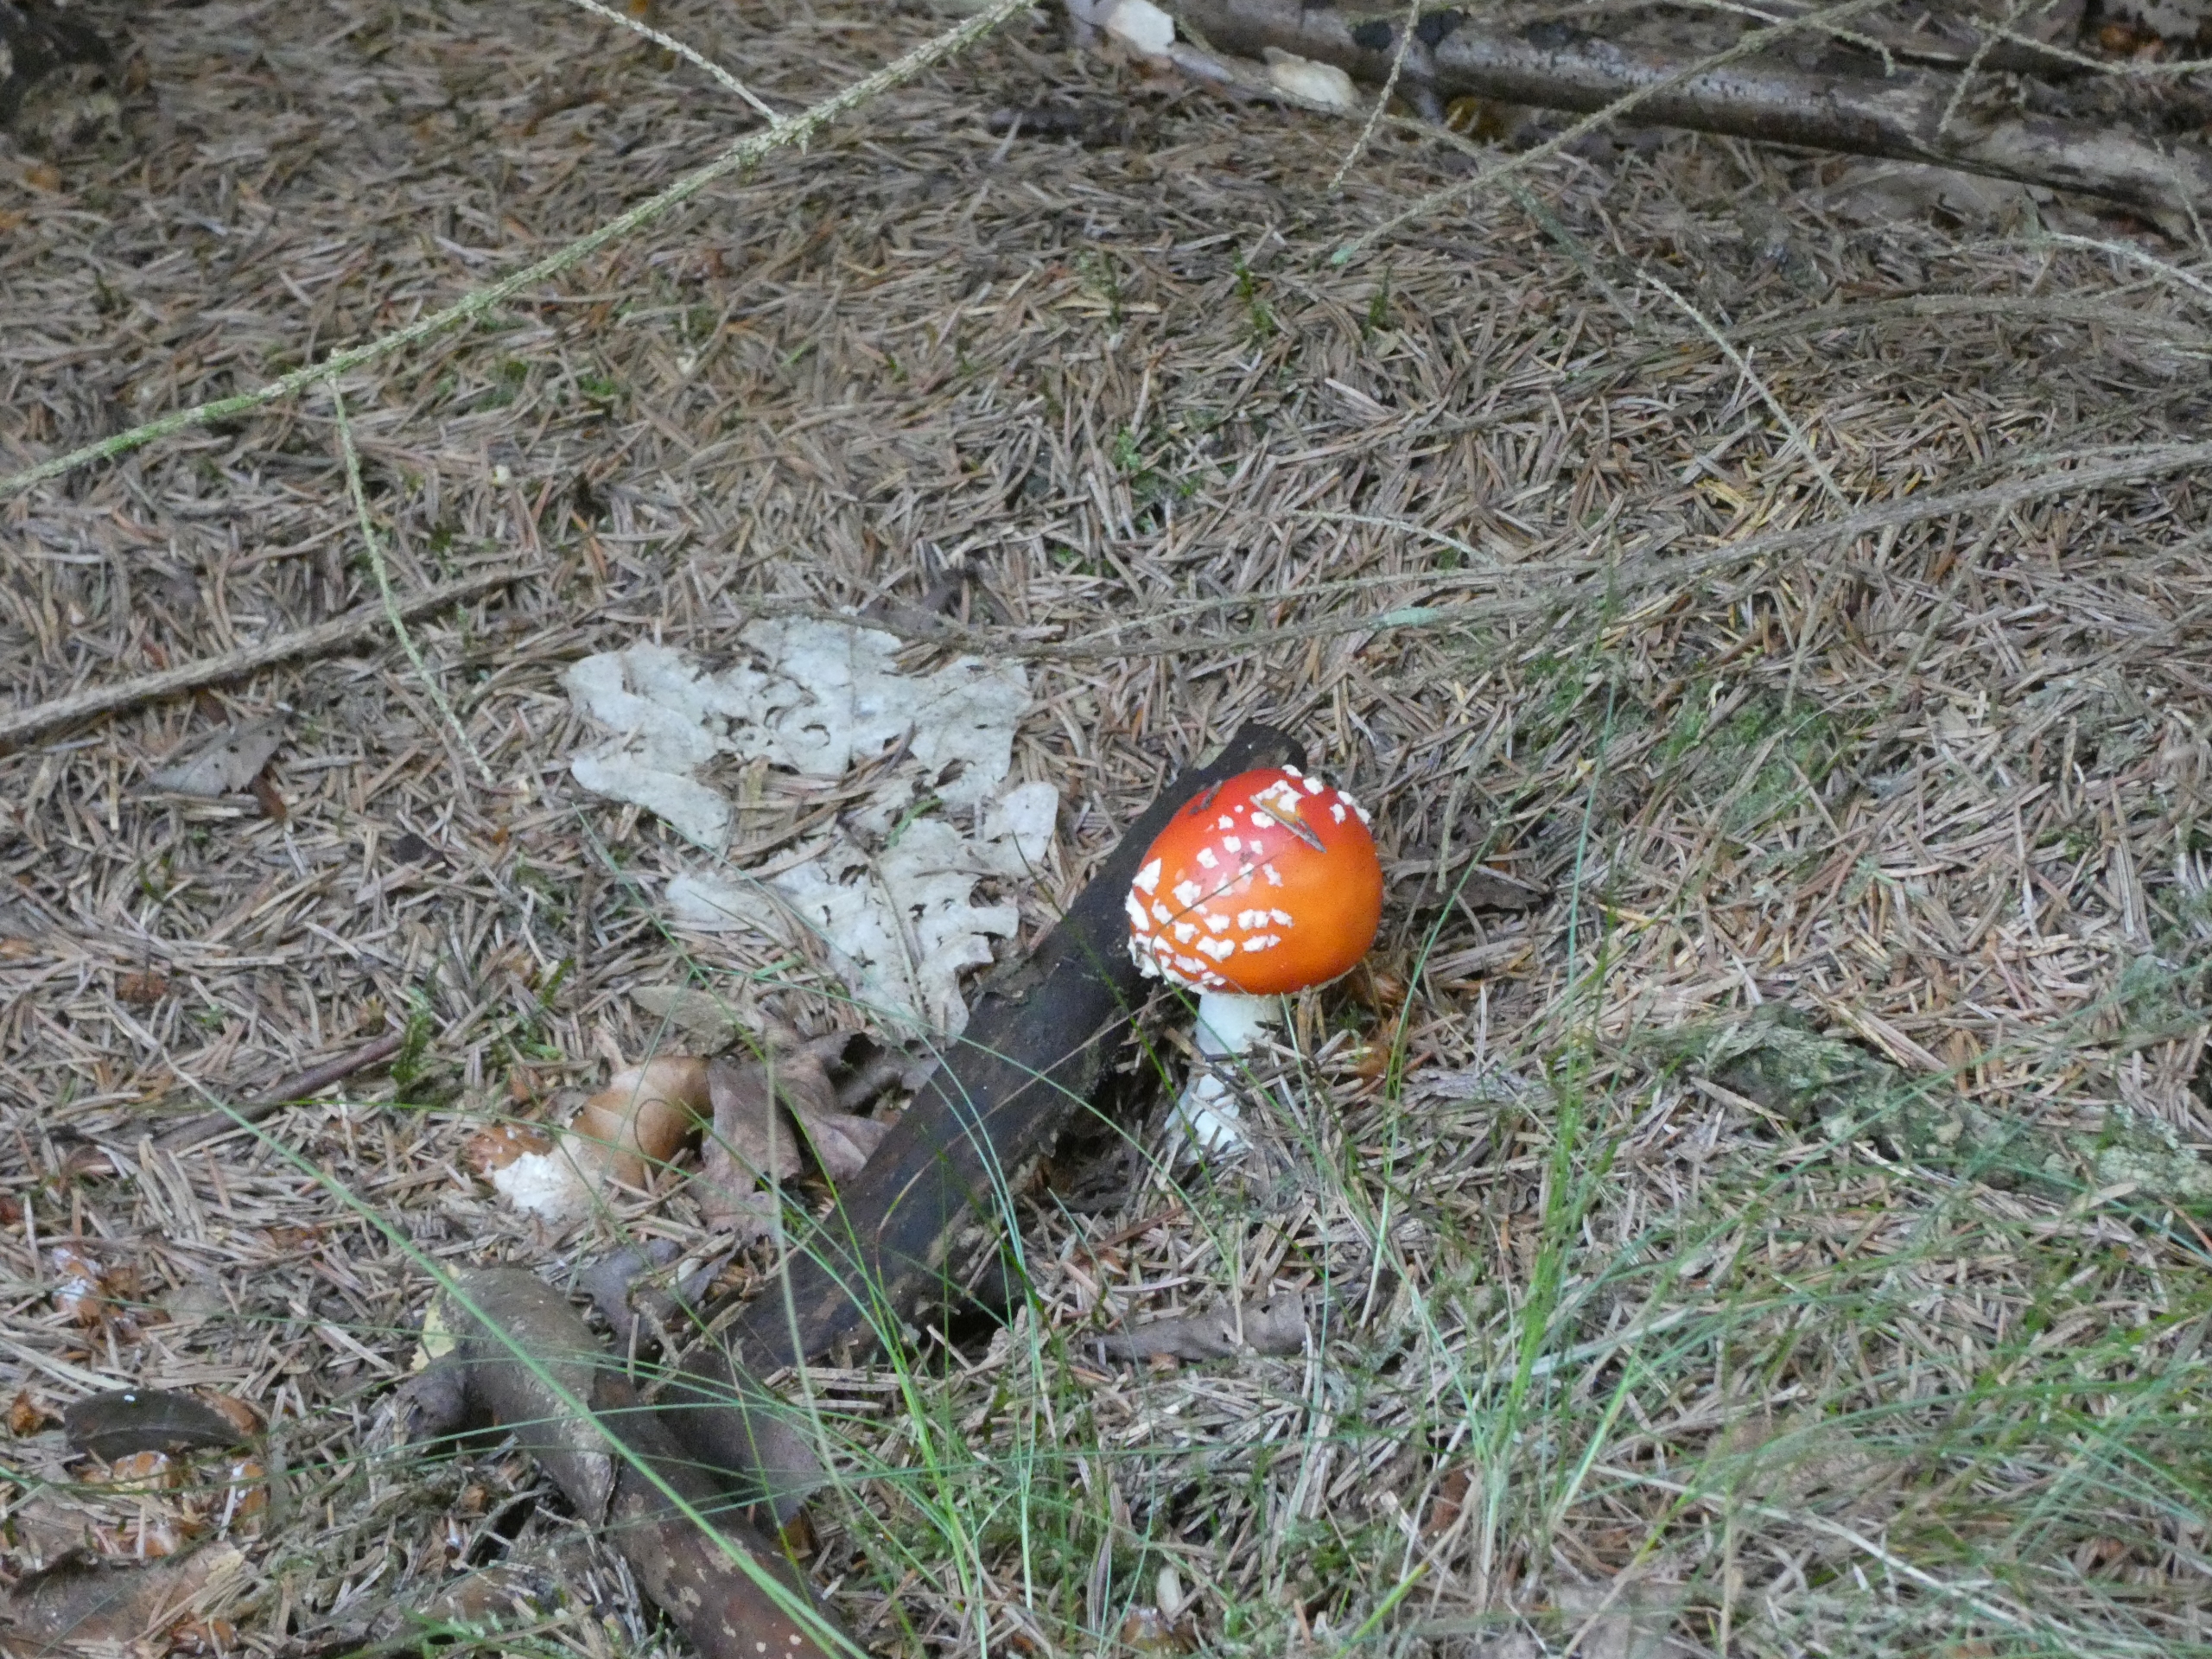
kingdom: Fungi
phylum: Basidiomycota
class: Agaricomycetes
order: Agaricales
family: Amanitaceae
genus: Amanita
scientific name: Amanita muscaria
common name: Rød fluesvamp
